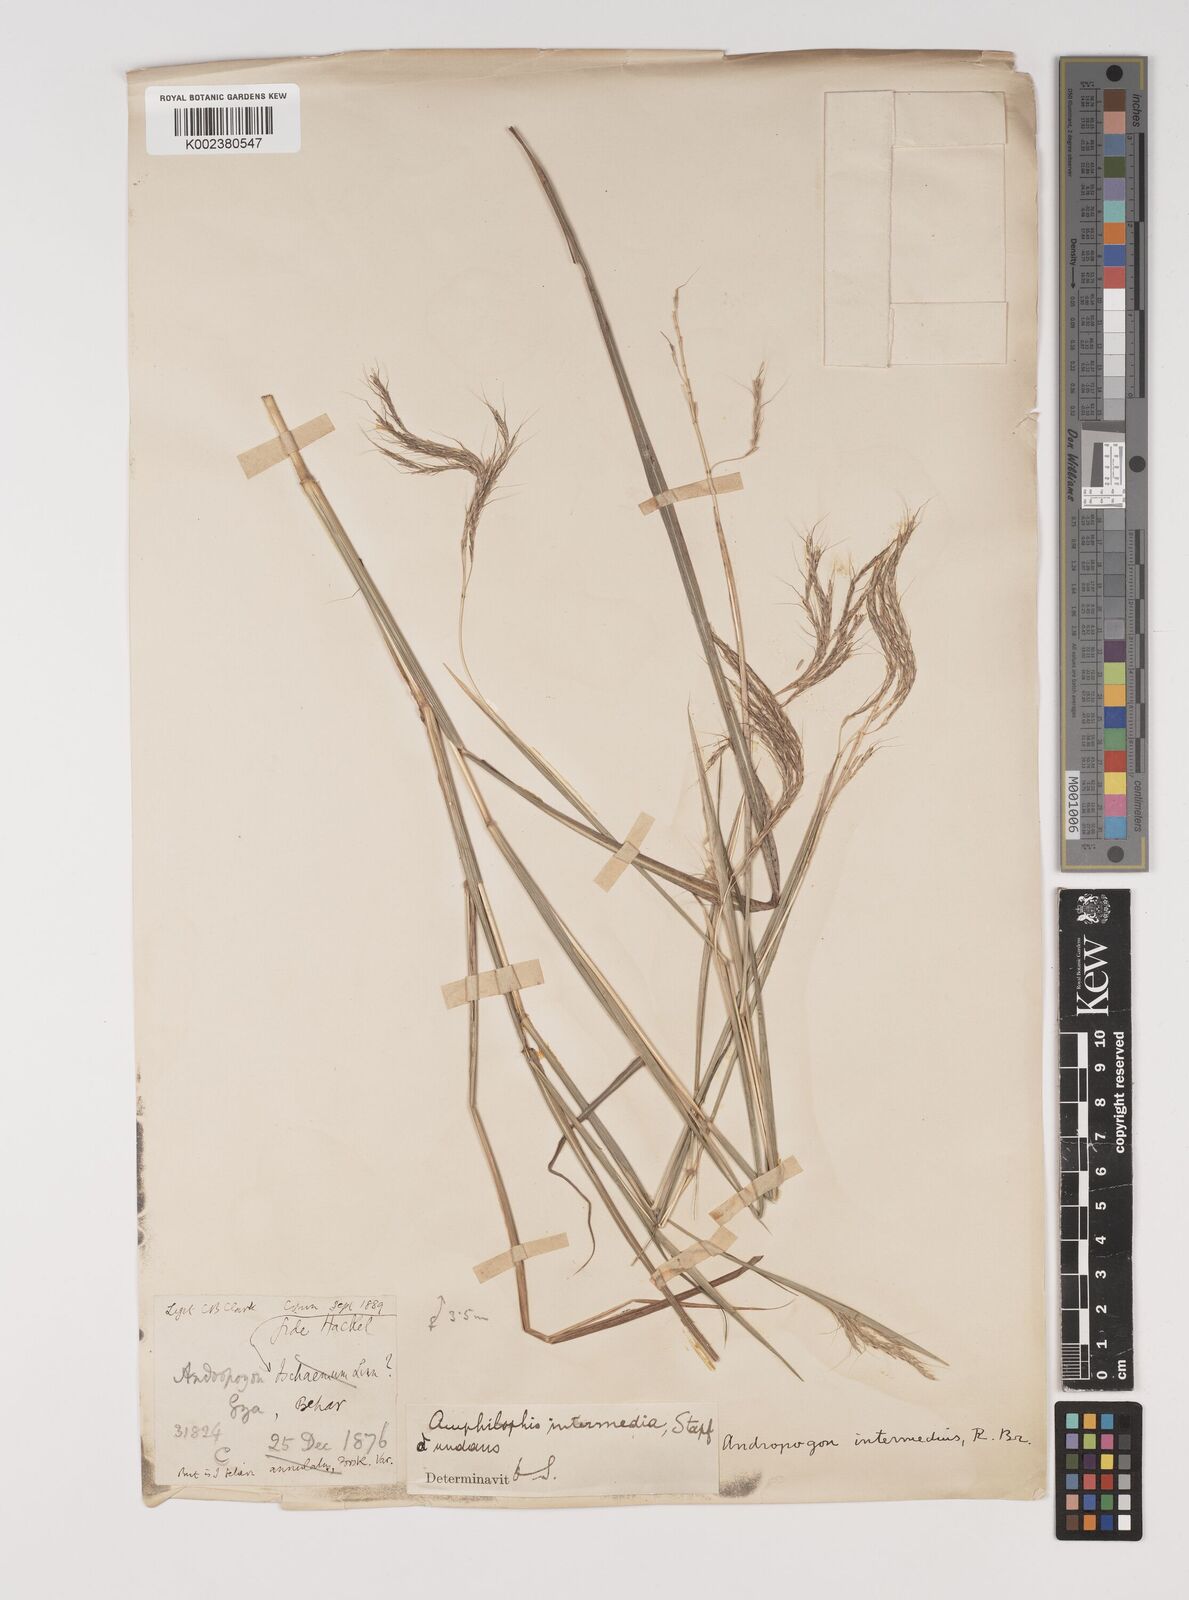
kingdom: Plantae
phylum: Tracheophyta
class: Liliopsida
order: Poales
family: Poaceae
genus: Bothriochloa
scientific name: Bothriochloa bladhii
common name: Caucasian bluestem
